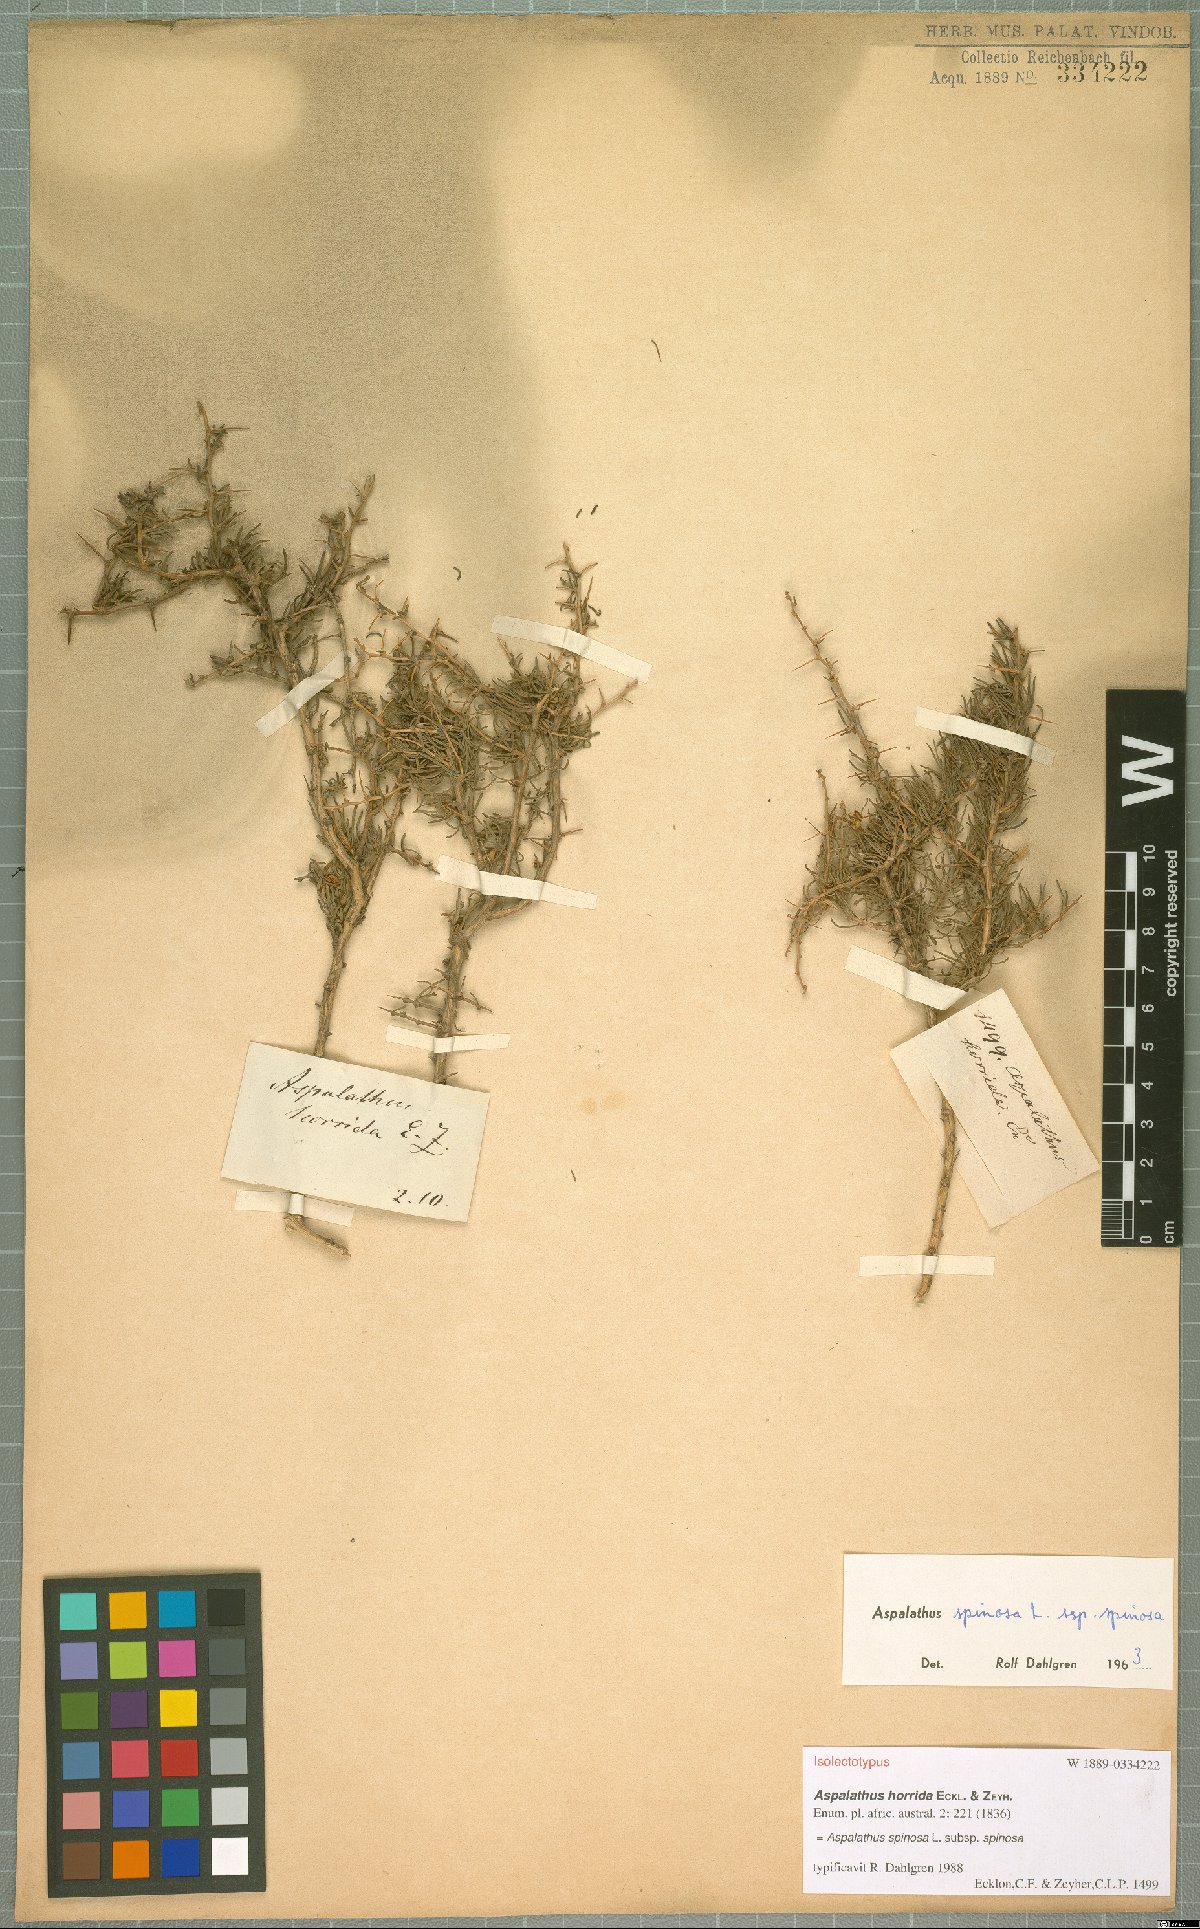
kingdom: Plantae
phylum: Tracheophyta
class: Magnoliopsida
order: Fabales
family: Fabaceae
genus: Aspalathus
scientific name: Aspalathus spinosa
